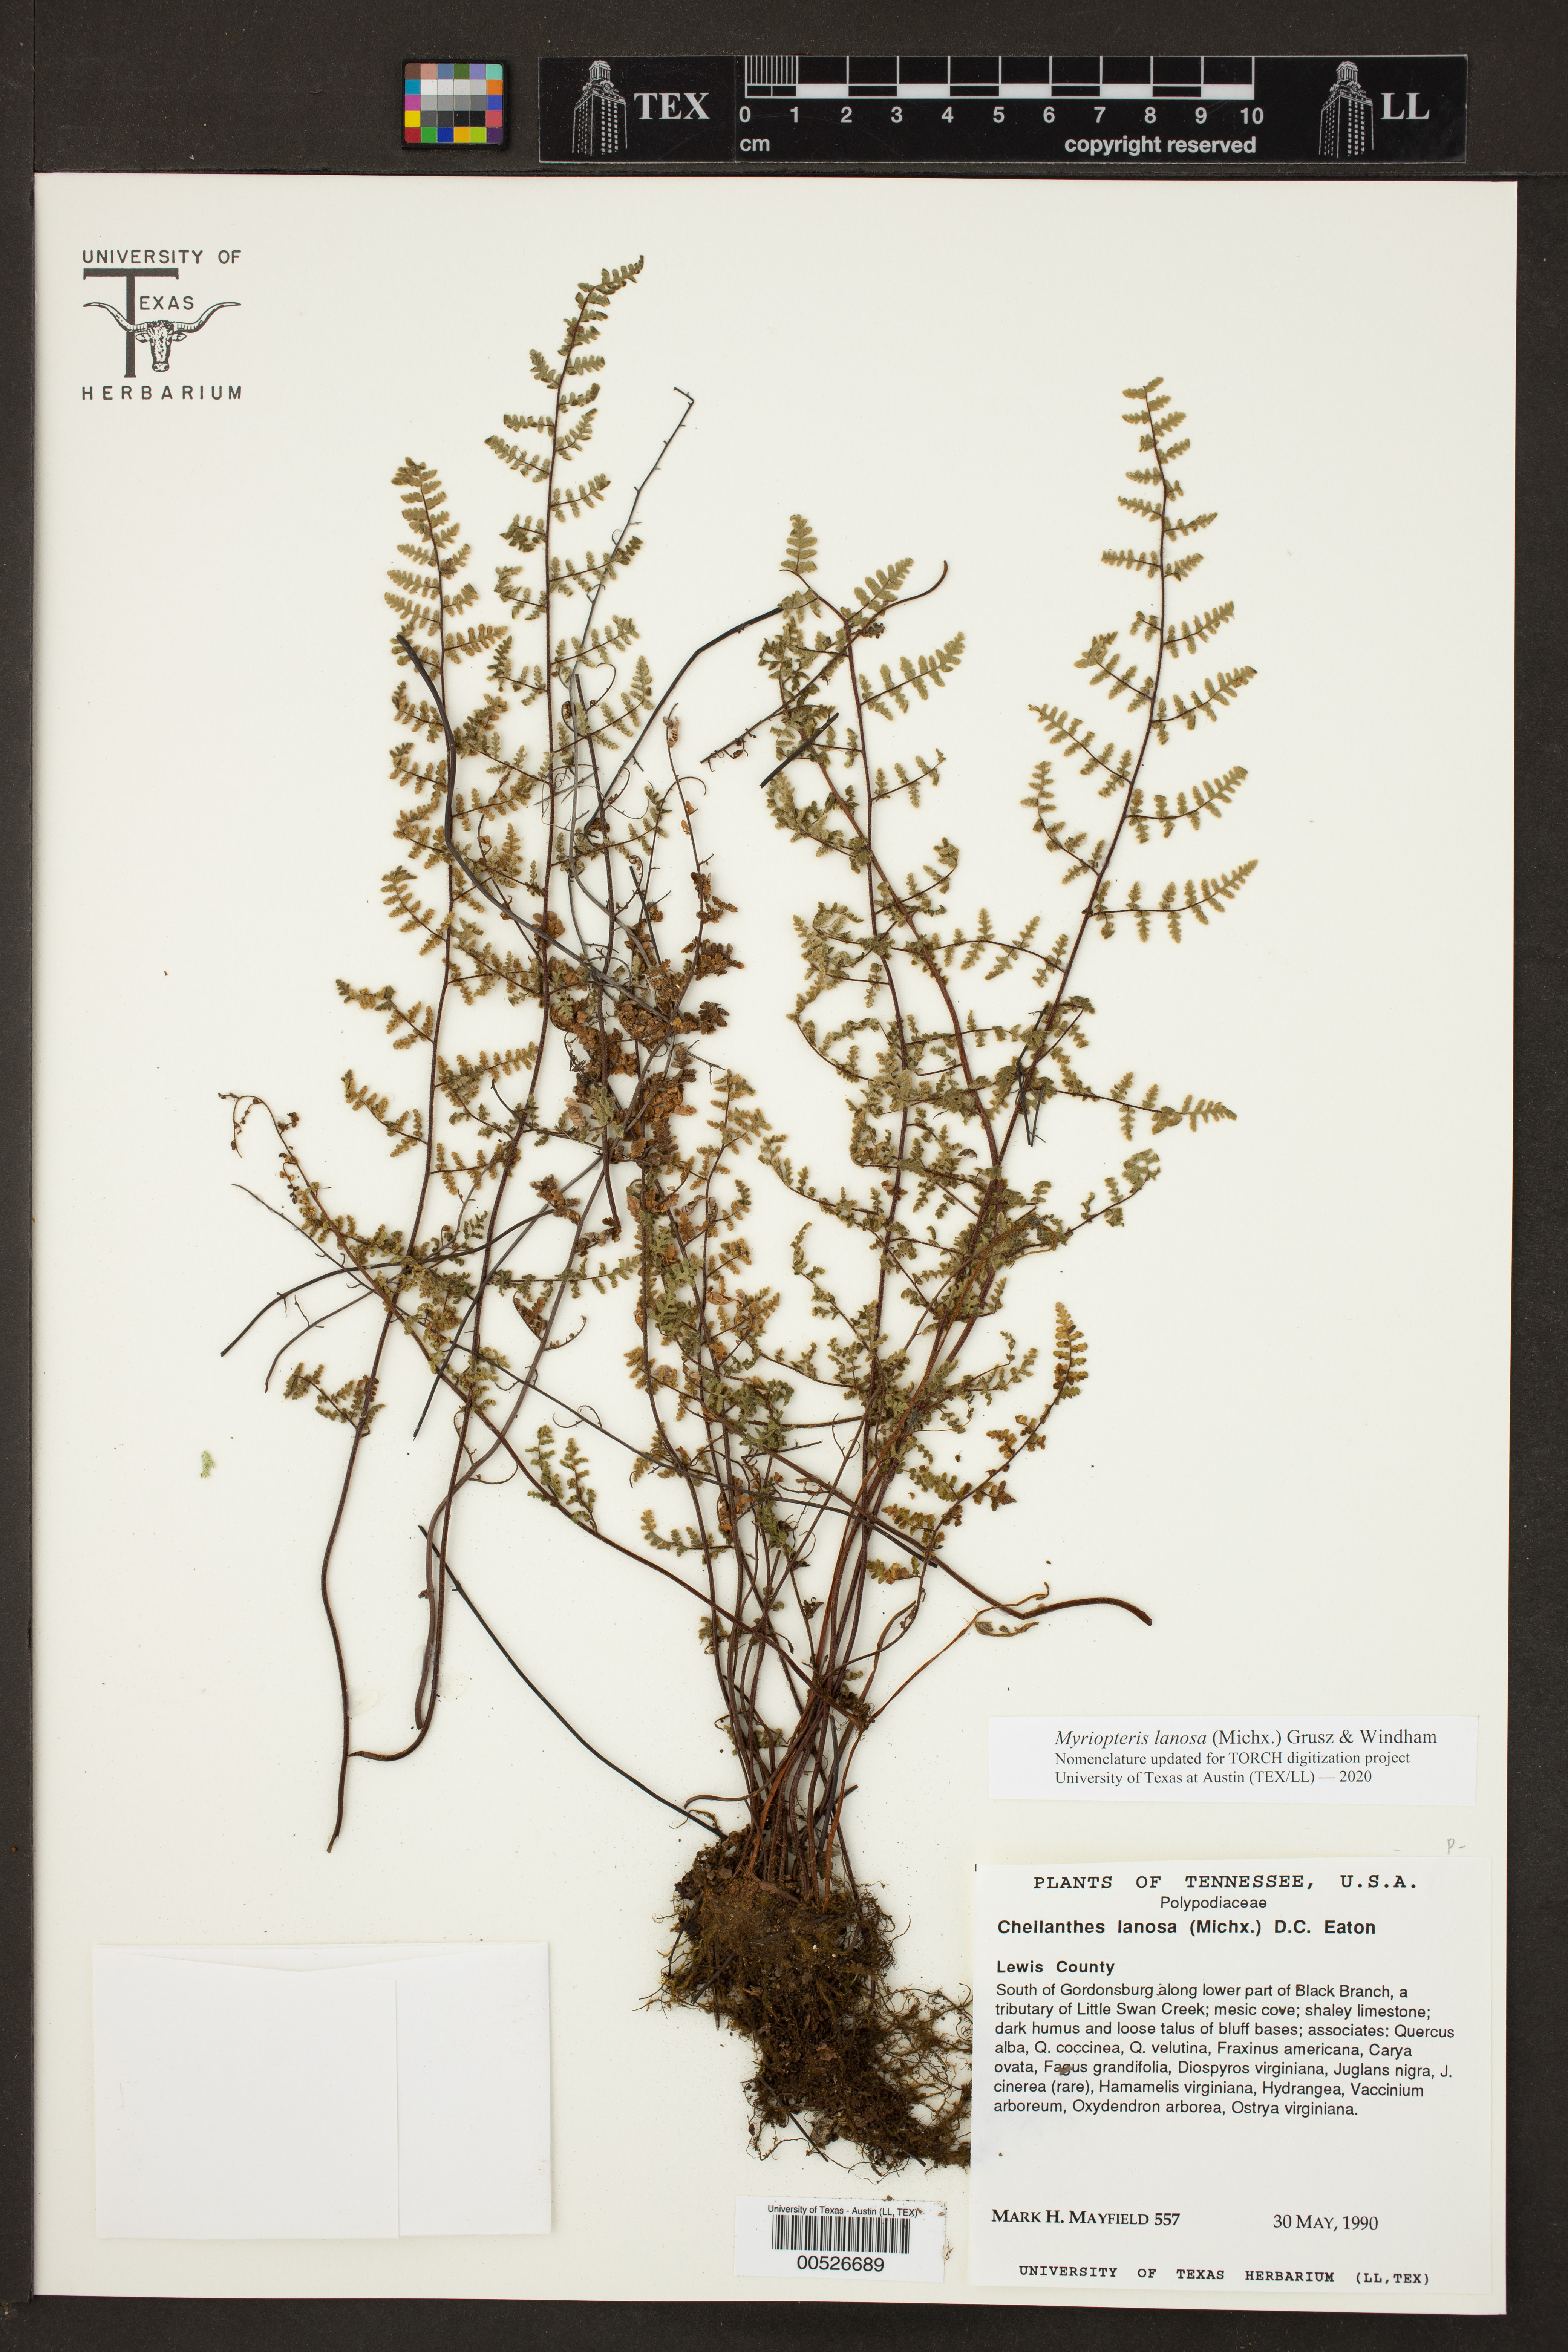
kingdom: Plantae
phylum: Tracheophyta
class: Polypodiopsida
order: Polypodiales
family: Pteridaceae
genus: Myriopteris
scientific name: Myriopteris lanosa
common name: Hairy lip fern
